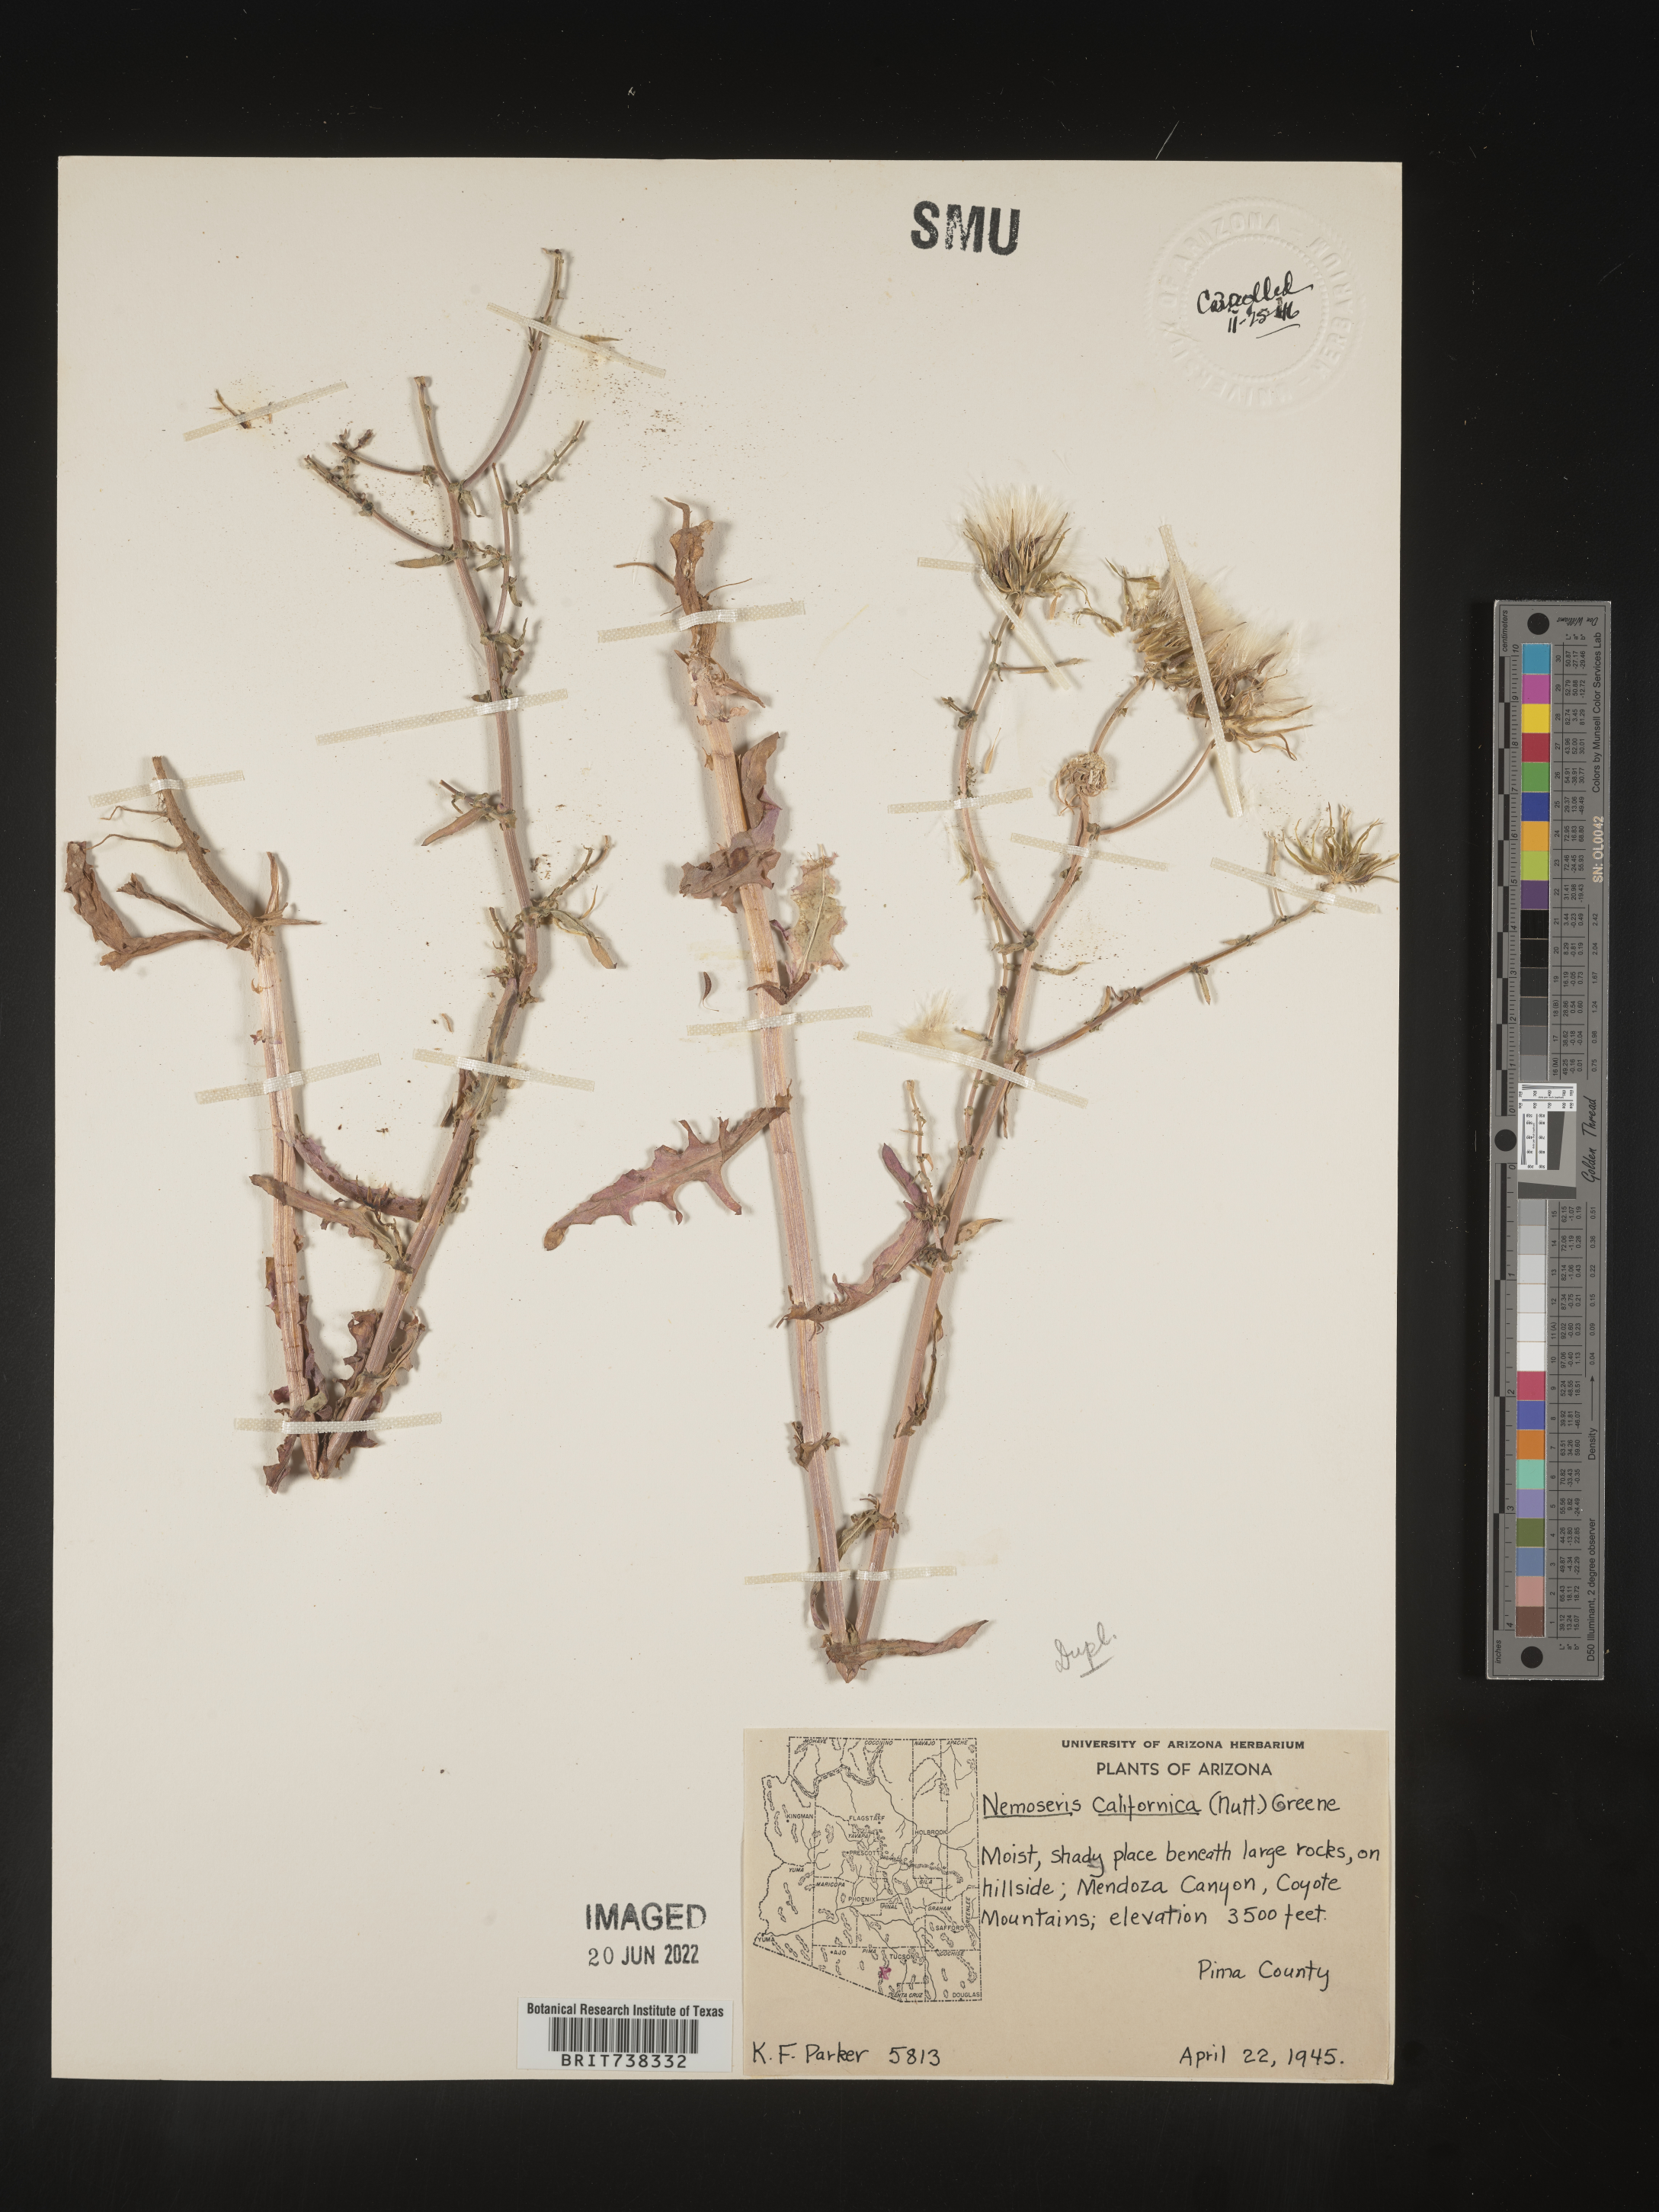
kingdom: Plantae
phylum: Tracheophyta
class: Magnoliopsida
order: Asterales
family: Asteraceae
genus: Rafinesquia
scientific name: Rafinesquia
